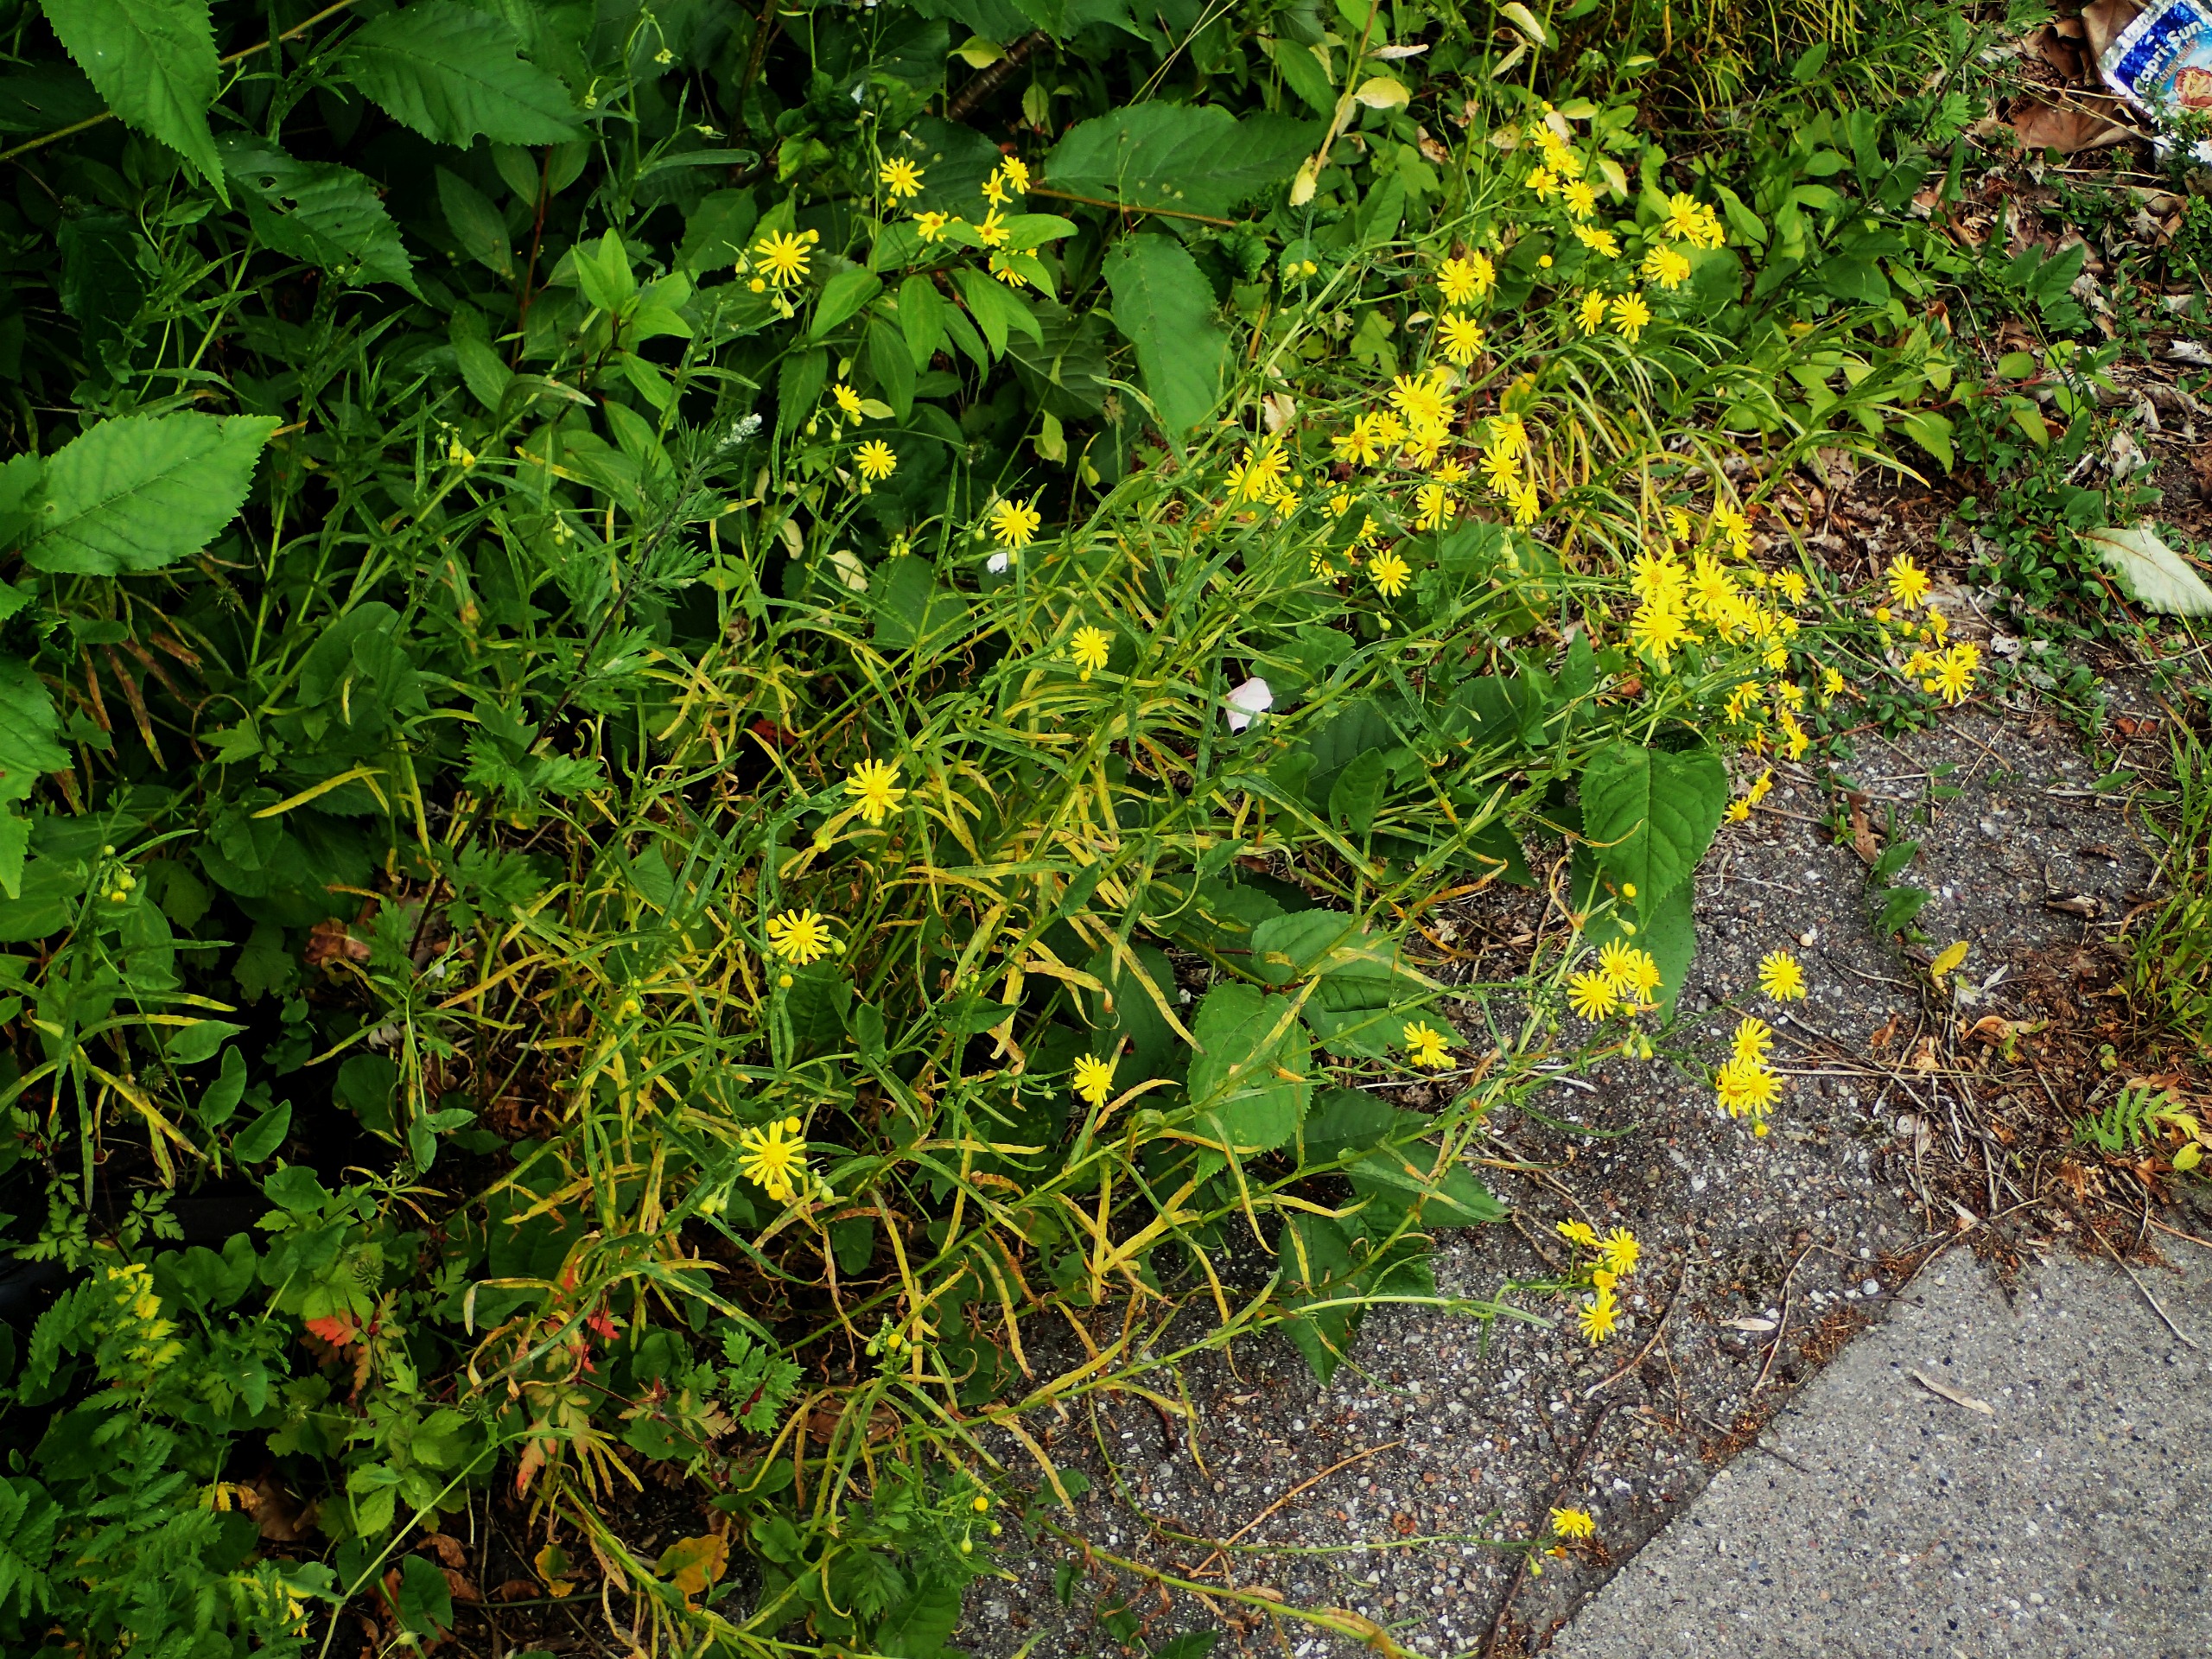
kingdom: Plantae
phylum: Tracheophyta
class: Magnoliopsida
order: Asterales
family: Asteraceae
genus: Senecio
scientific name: Senecio inaequidens
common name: Smalbladet brandbæger
